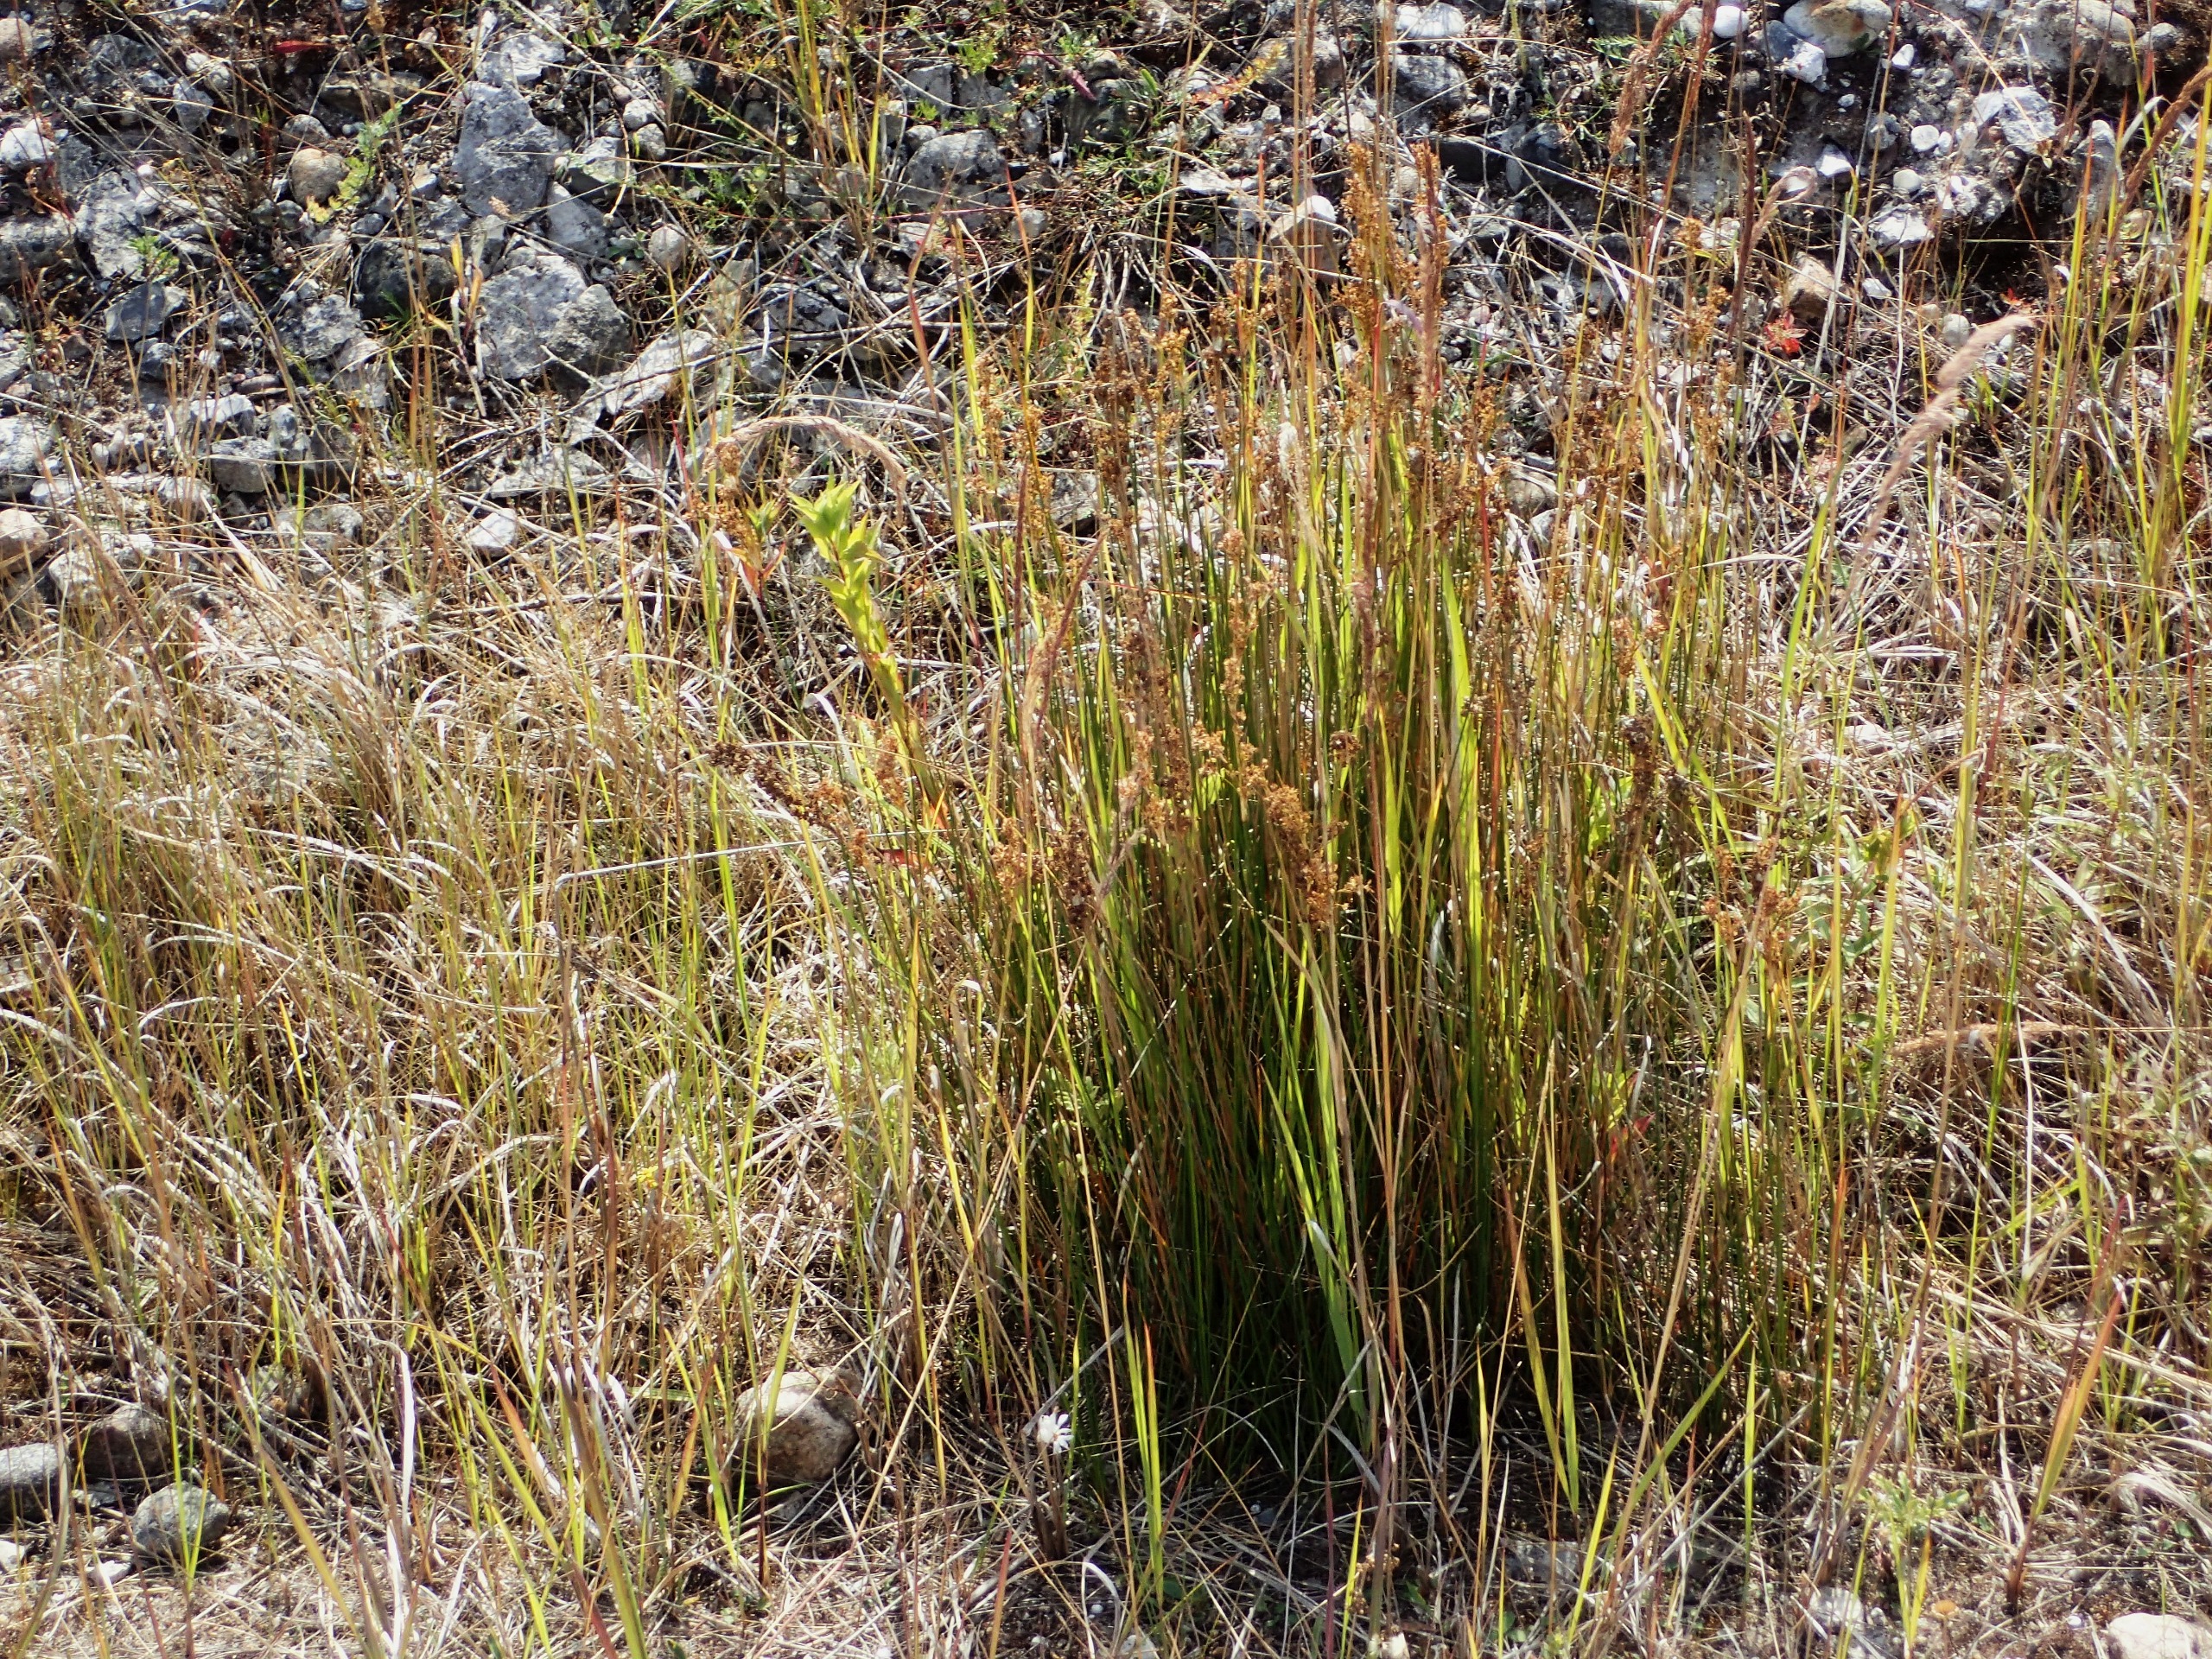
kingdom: Plantae
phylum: Tracheophyta
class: Liliopsida
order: Poales
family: Juncaceae
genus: Juncus
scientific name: Juncus maritimus
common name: Strand-siv
